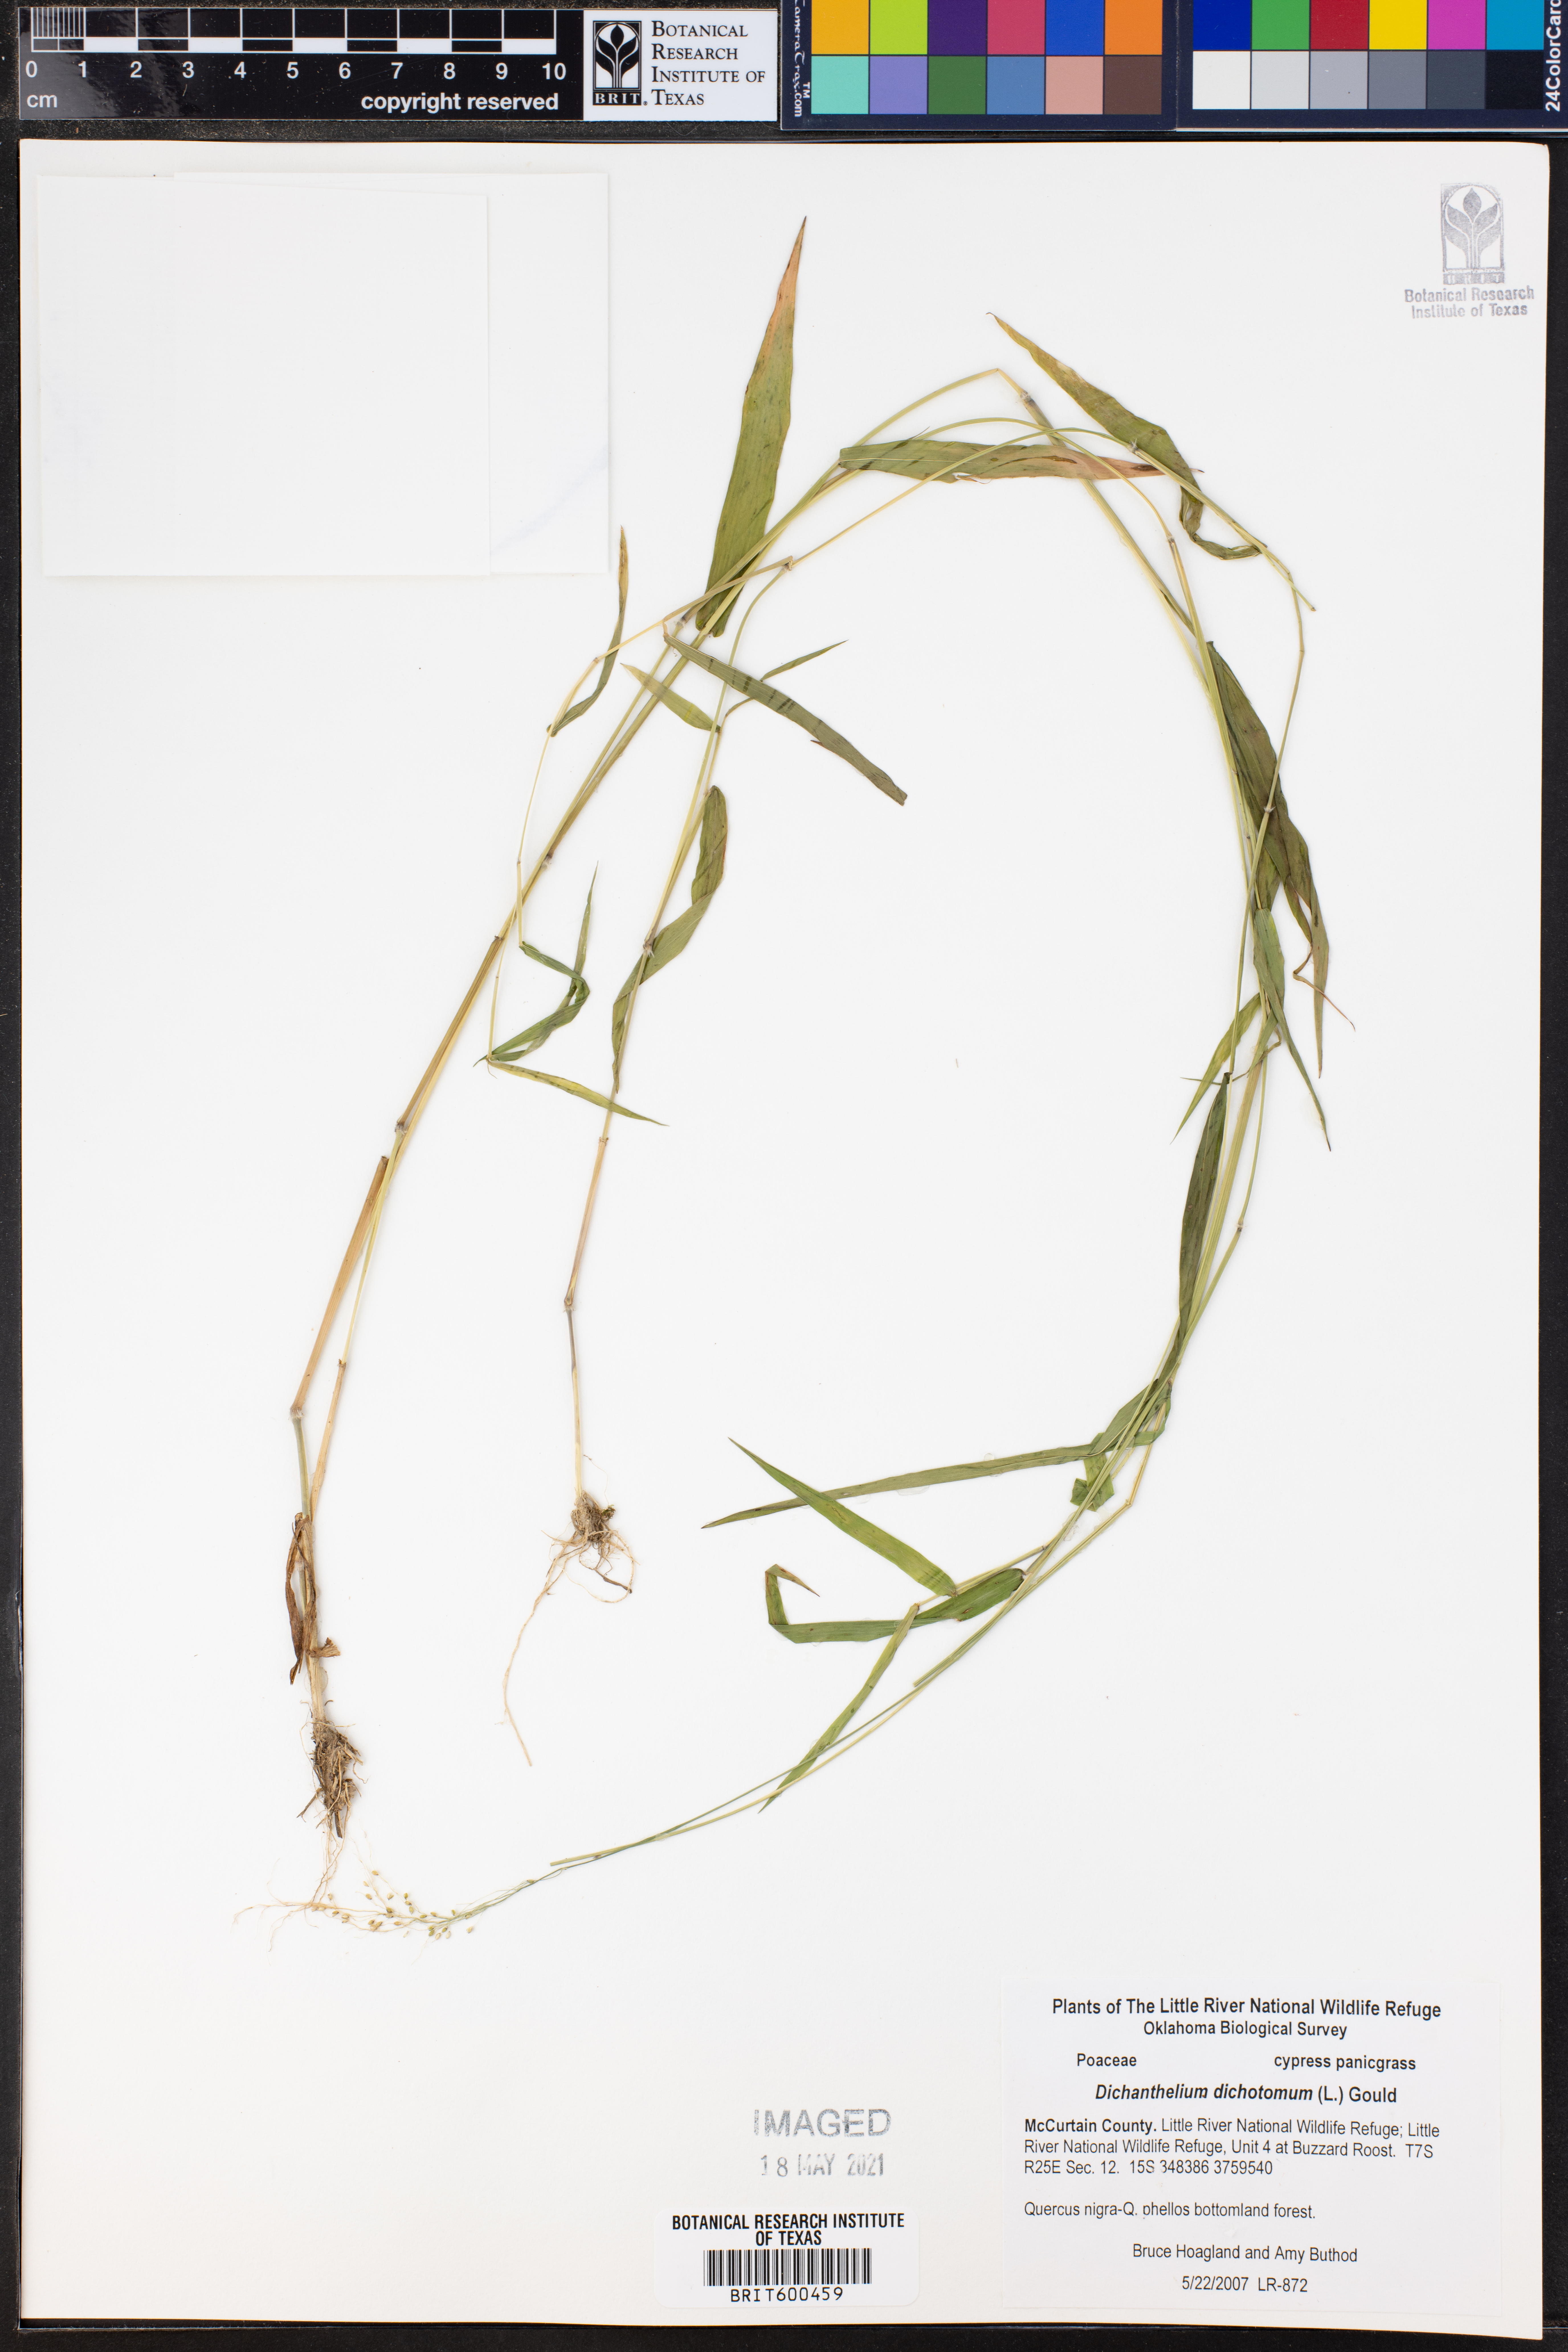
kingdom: Plantae
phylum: Tracheophyta
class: Liliopsida
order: Poales
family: Poaceae
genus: Dichanthelium
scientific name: Dichanthelium dichotomum
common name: Cypress panicgrass
